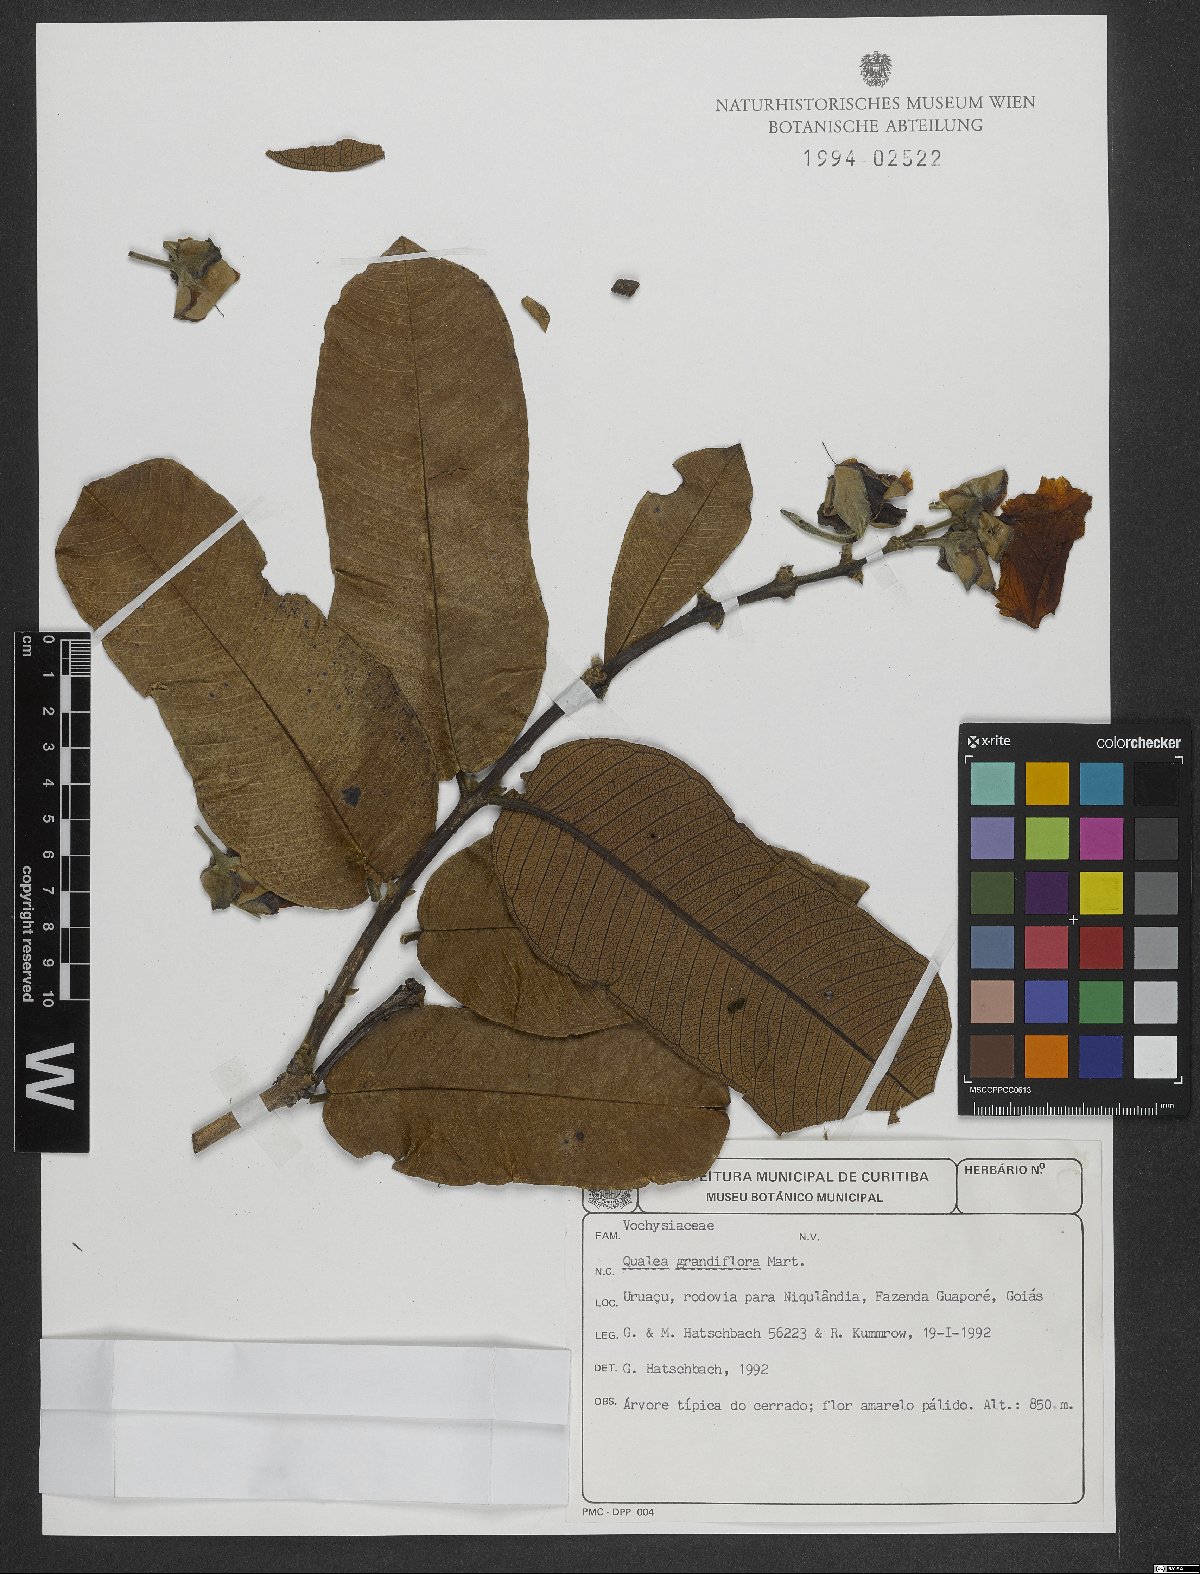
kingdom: Plantae
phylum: Tracheophyta
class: Magnoliopsida
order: Myrtales
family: Vochysiaceae
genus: Qualea
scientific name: Qualea grandiflora
